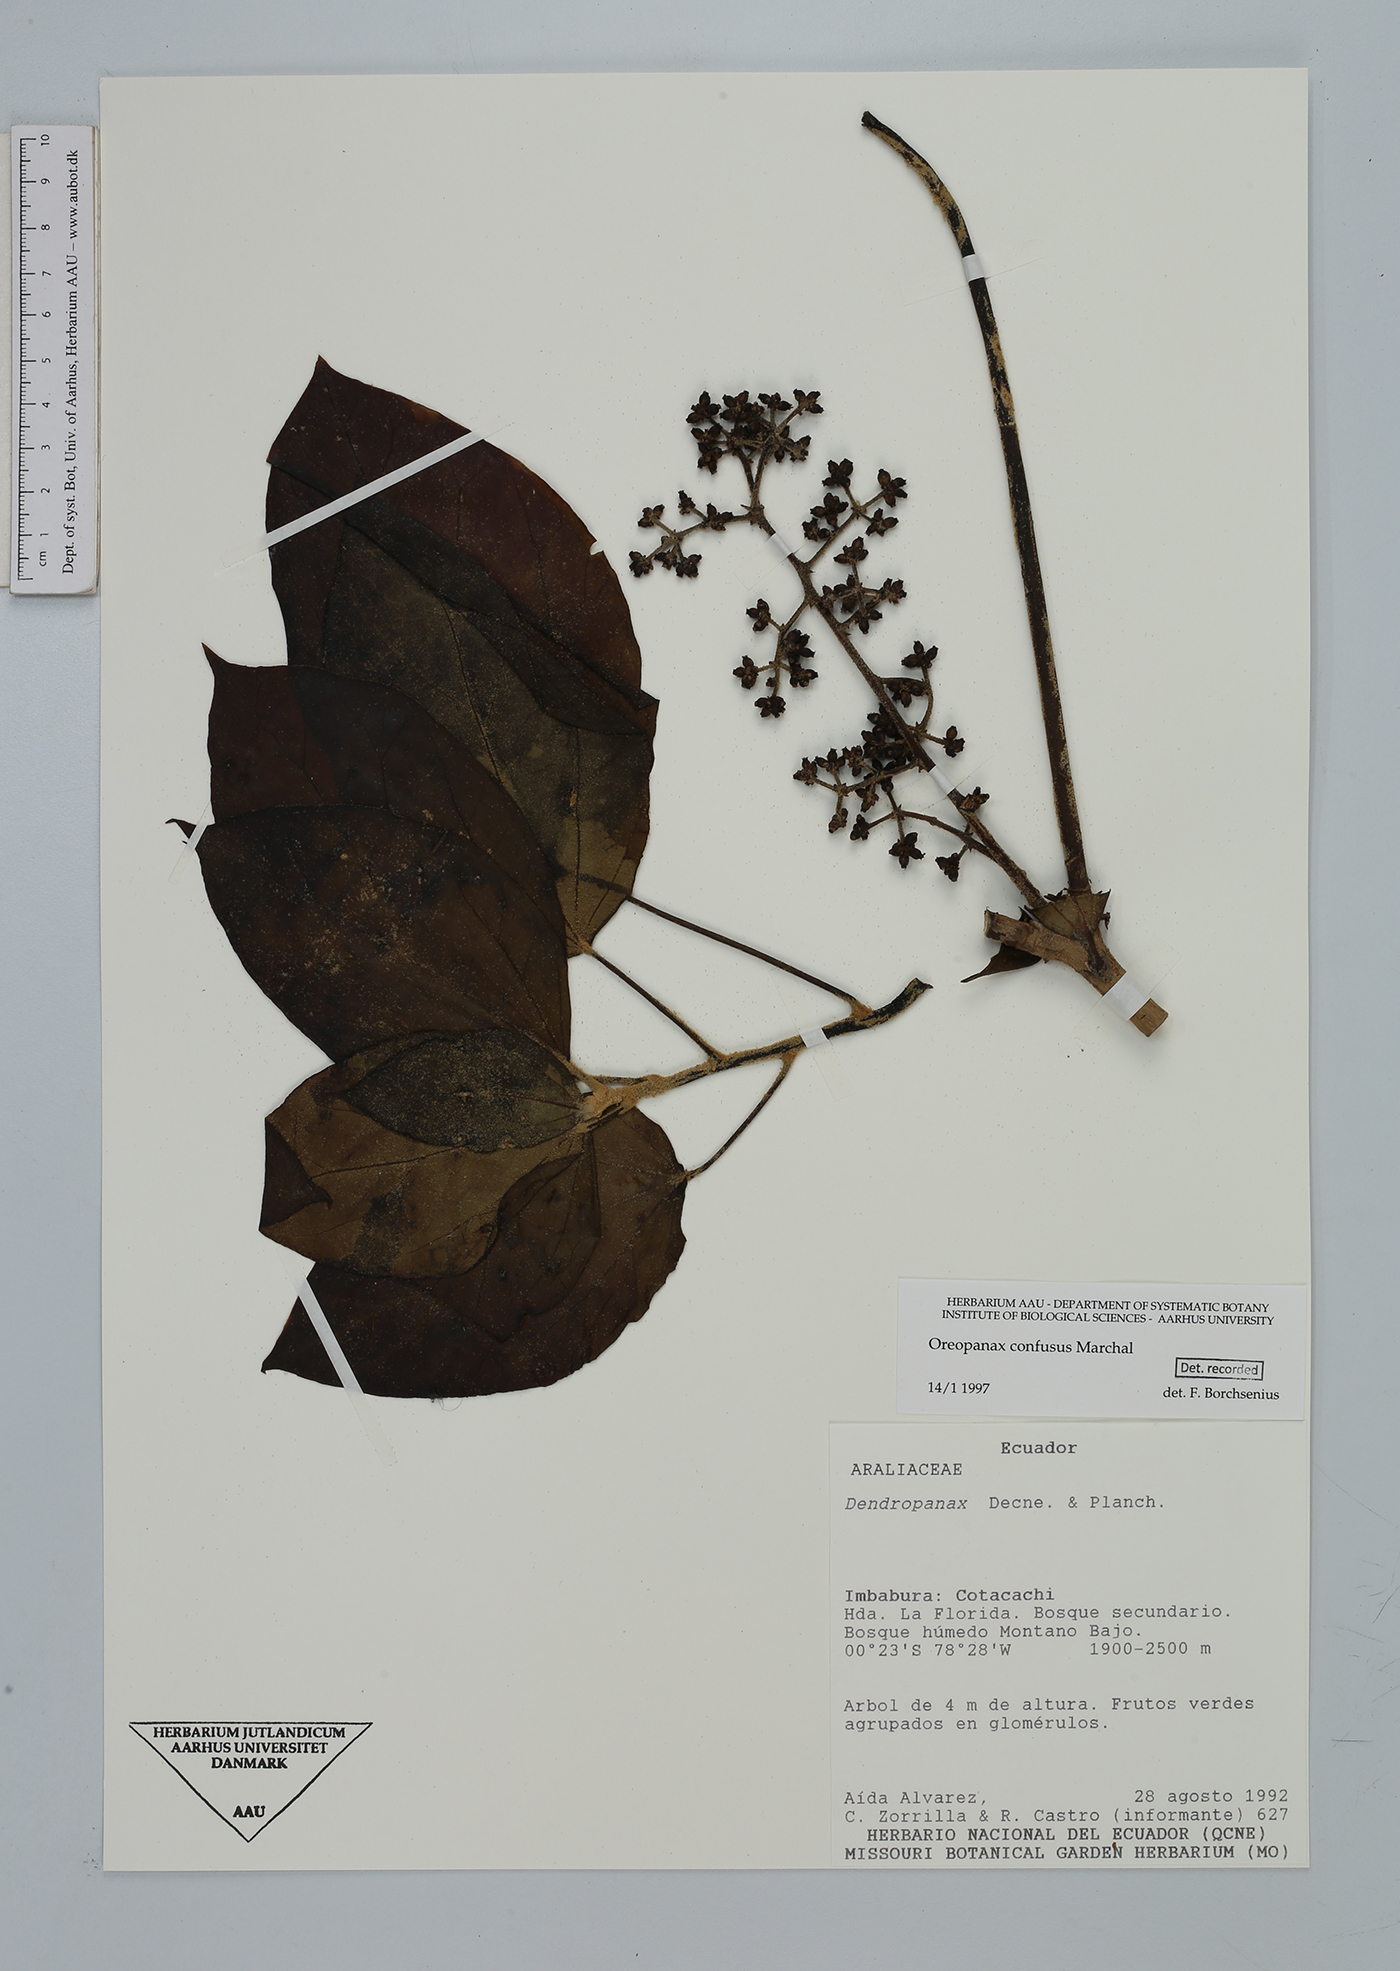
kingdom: Plantae
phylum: Tracheophyta
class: Magnoliopsida
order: Apiales
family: Araliaceae
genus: Oreopanax
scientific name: Oreopanax confusus
